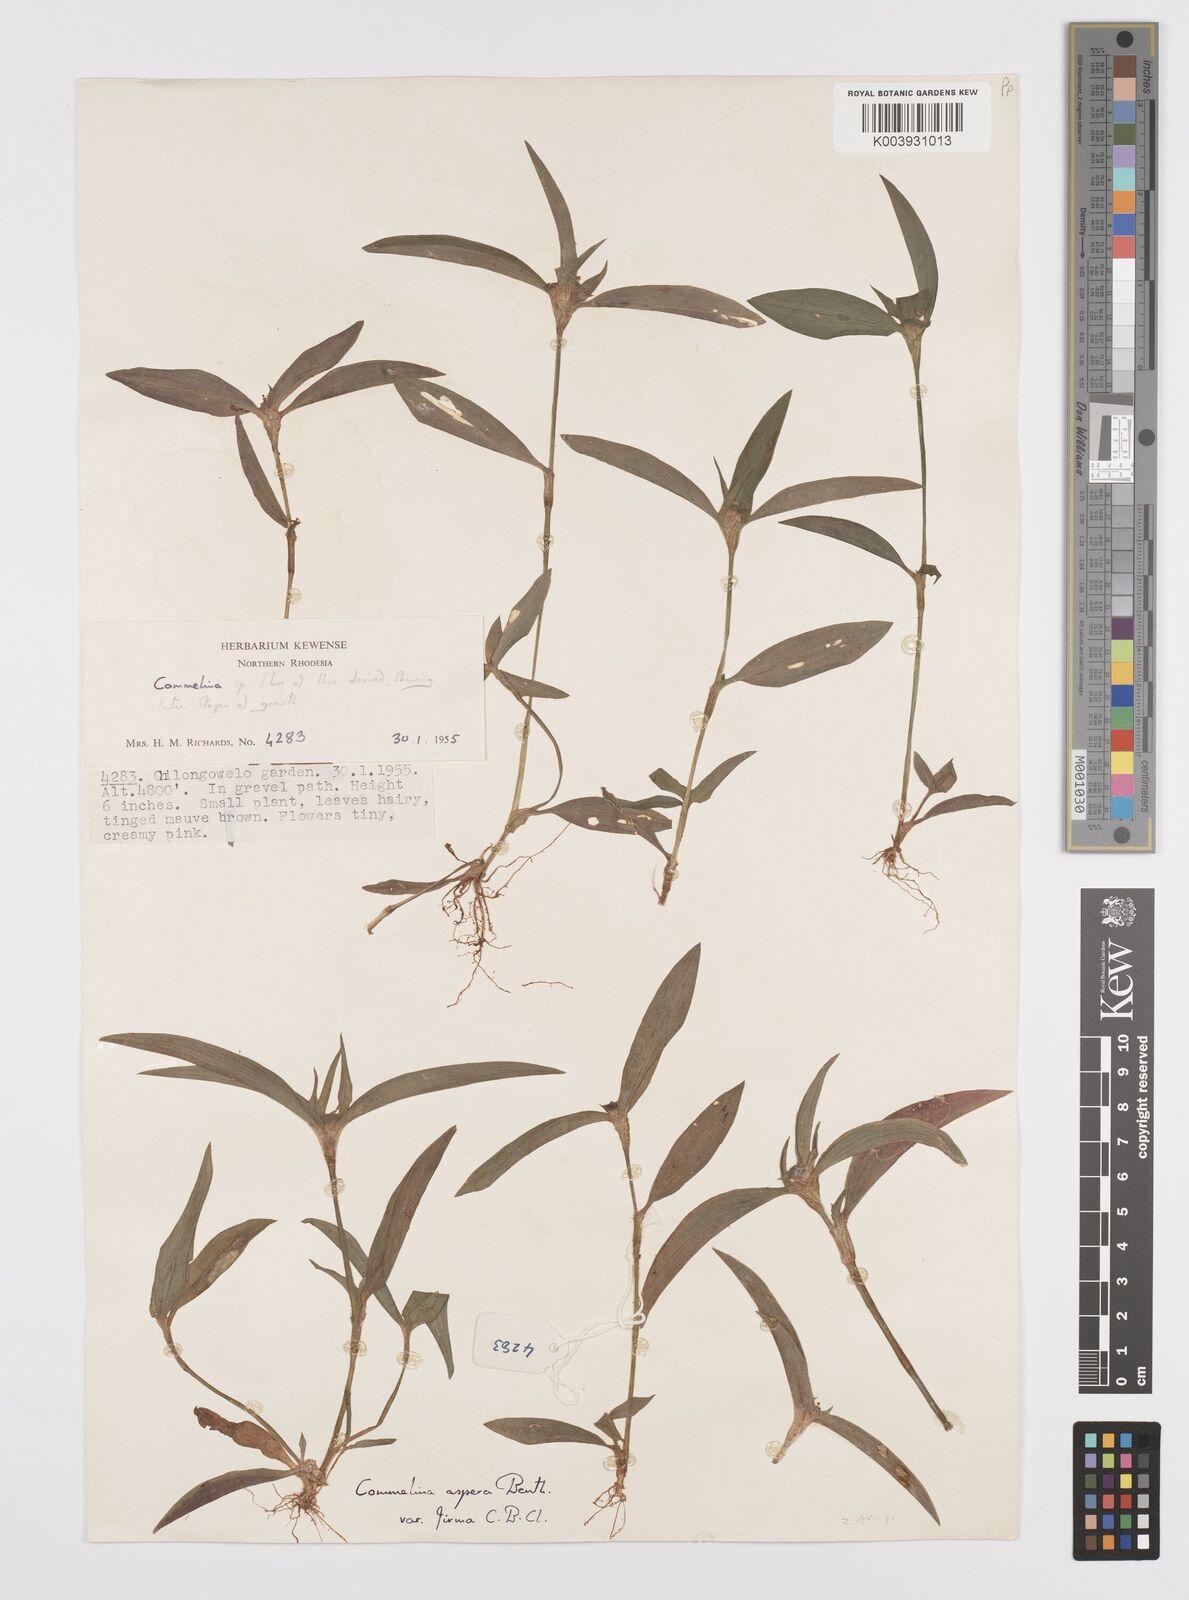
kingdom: Plantae
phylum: Tracheophyta
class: Liliopsida
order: Commelinales
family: Commelinaceae
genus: Commelina
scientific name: Commelina aspera
